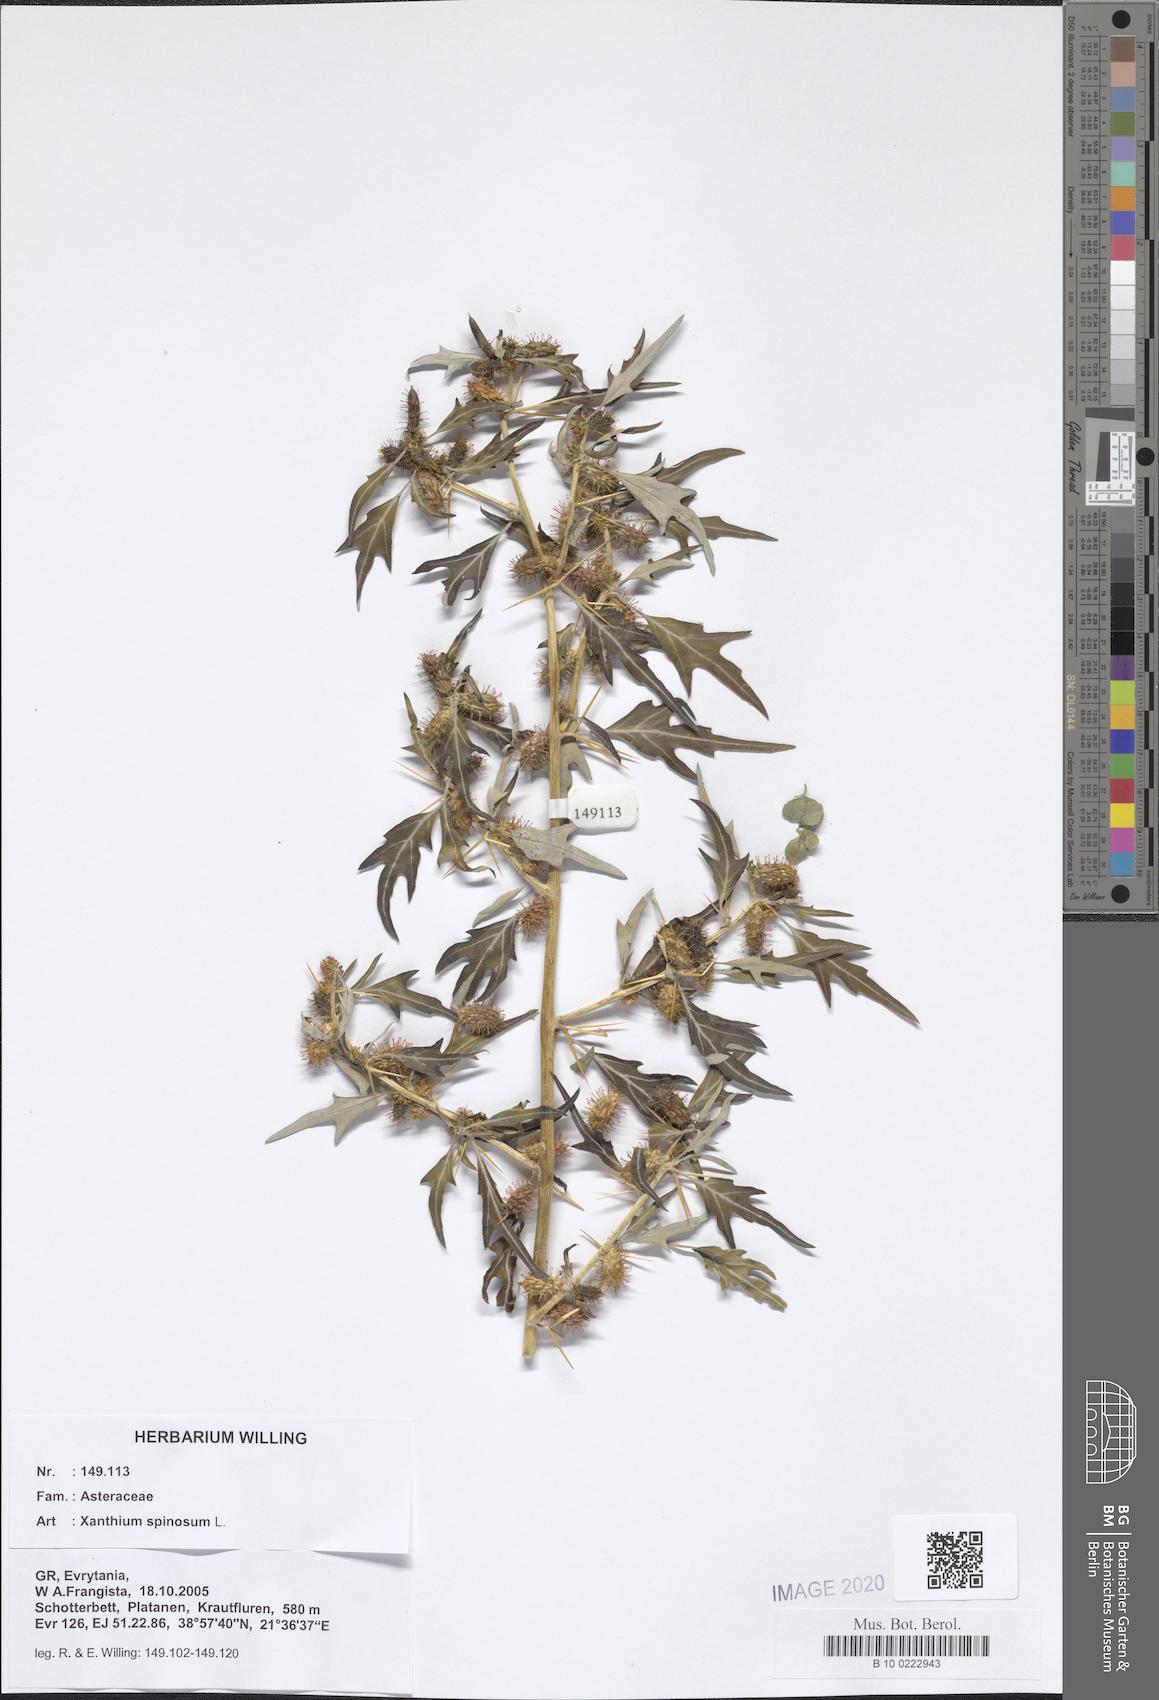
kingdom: Plantae
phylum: Tracheophyta
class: Magnoliopsida
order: Asterales
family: Asteraceae
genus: Xanthium
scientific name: Xanthium spinosum
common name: Spiny cocklebur
